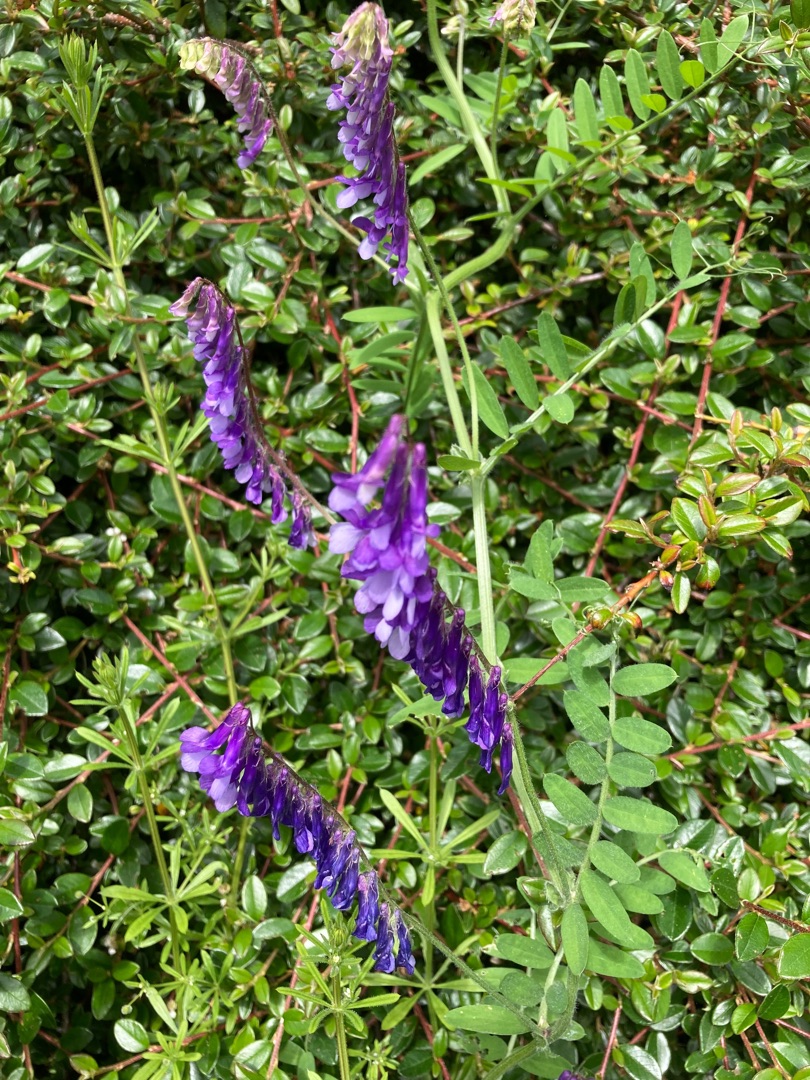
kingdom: Plantae
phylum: Tracheophyta
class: Magnoliopsida
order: Fabales
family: Fabaceae
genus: Vicia
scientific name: Vicia villosa
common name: Sand-vikke
